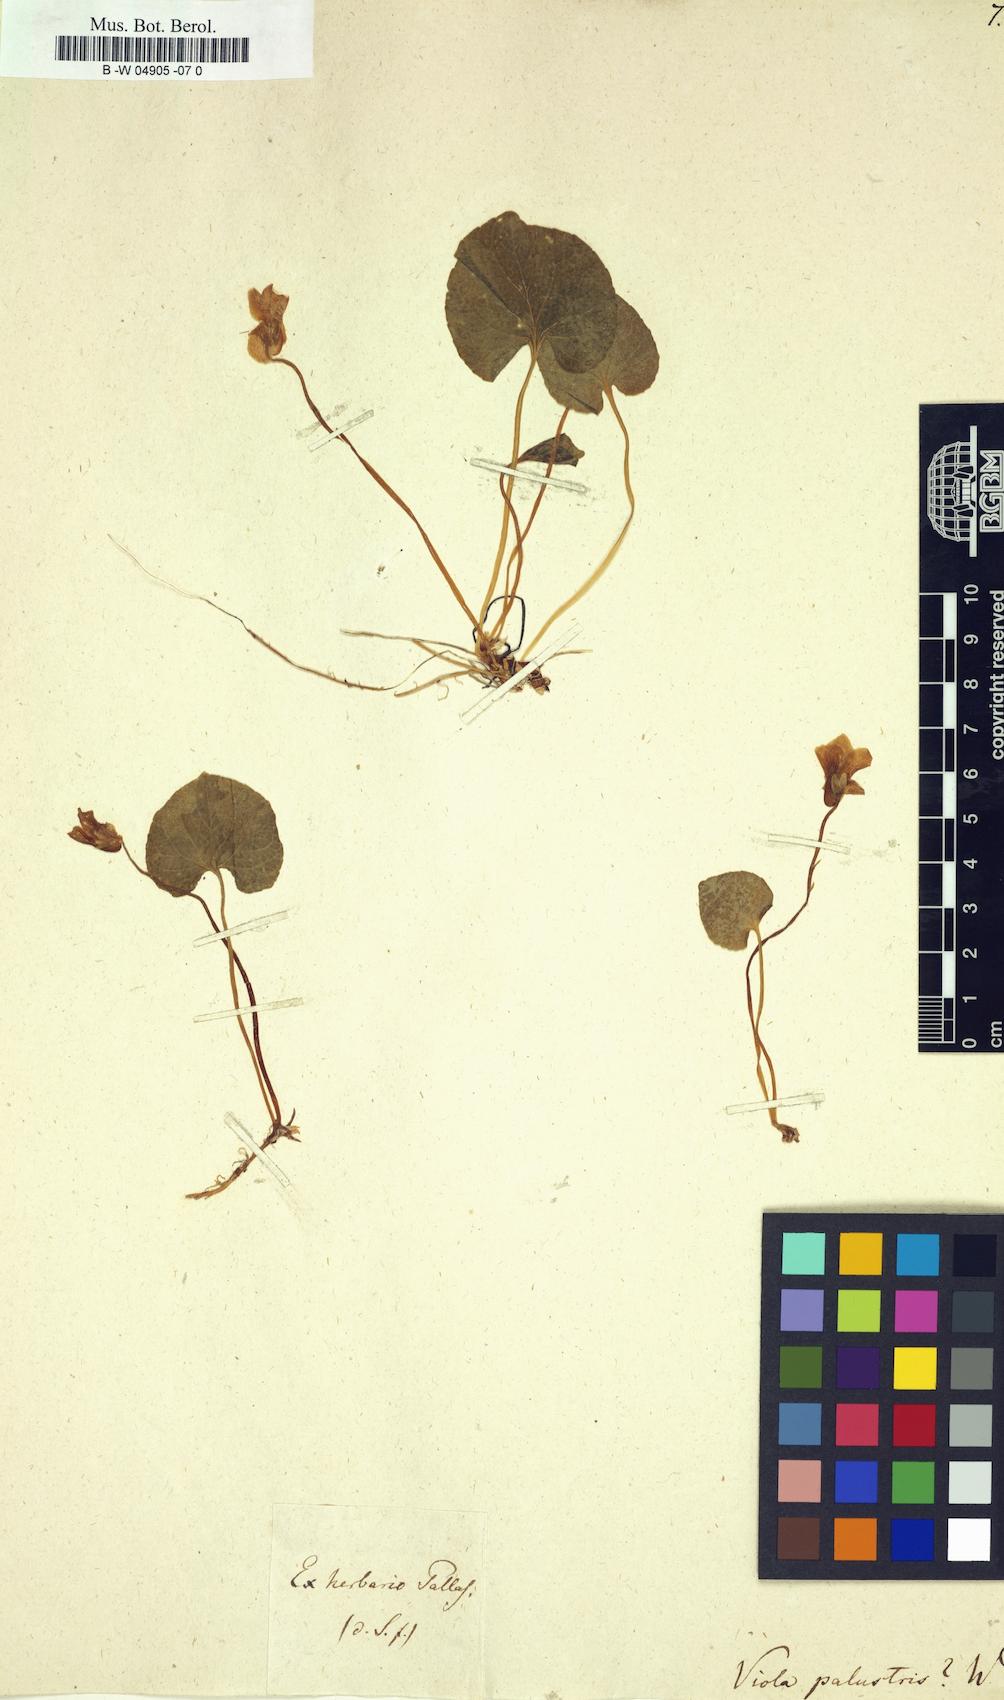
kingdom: Plantae
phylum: Tracheophyta
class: Magnoliopsida
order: Malpighiales
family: Violaceae
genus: Viola
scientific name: Viola palustris
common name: Marsh violet
